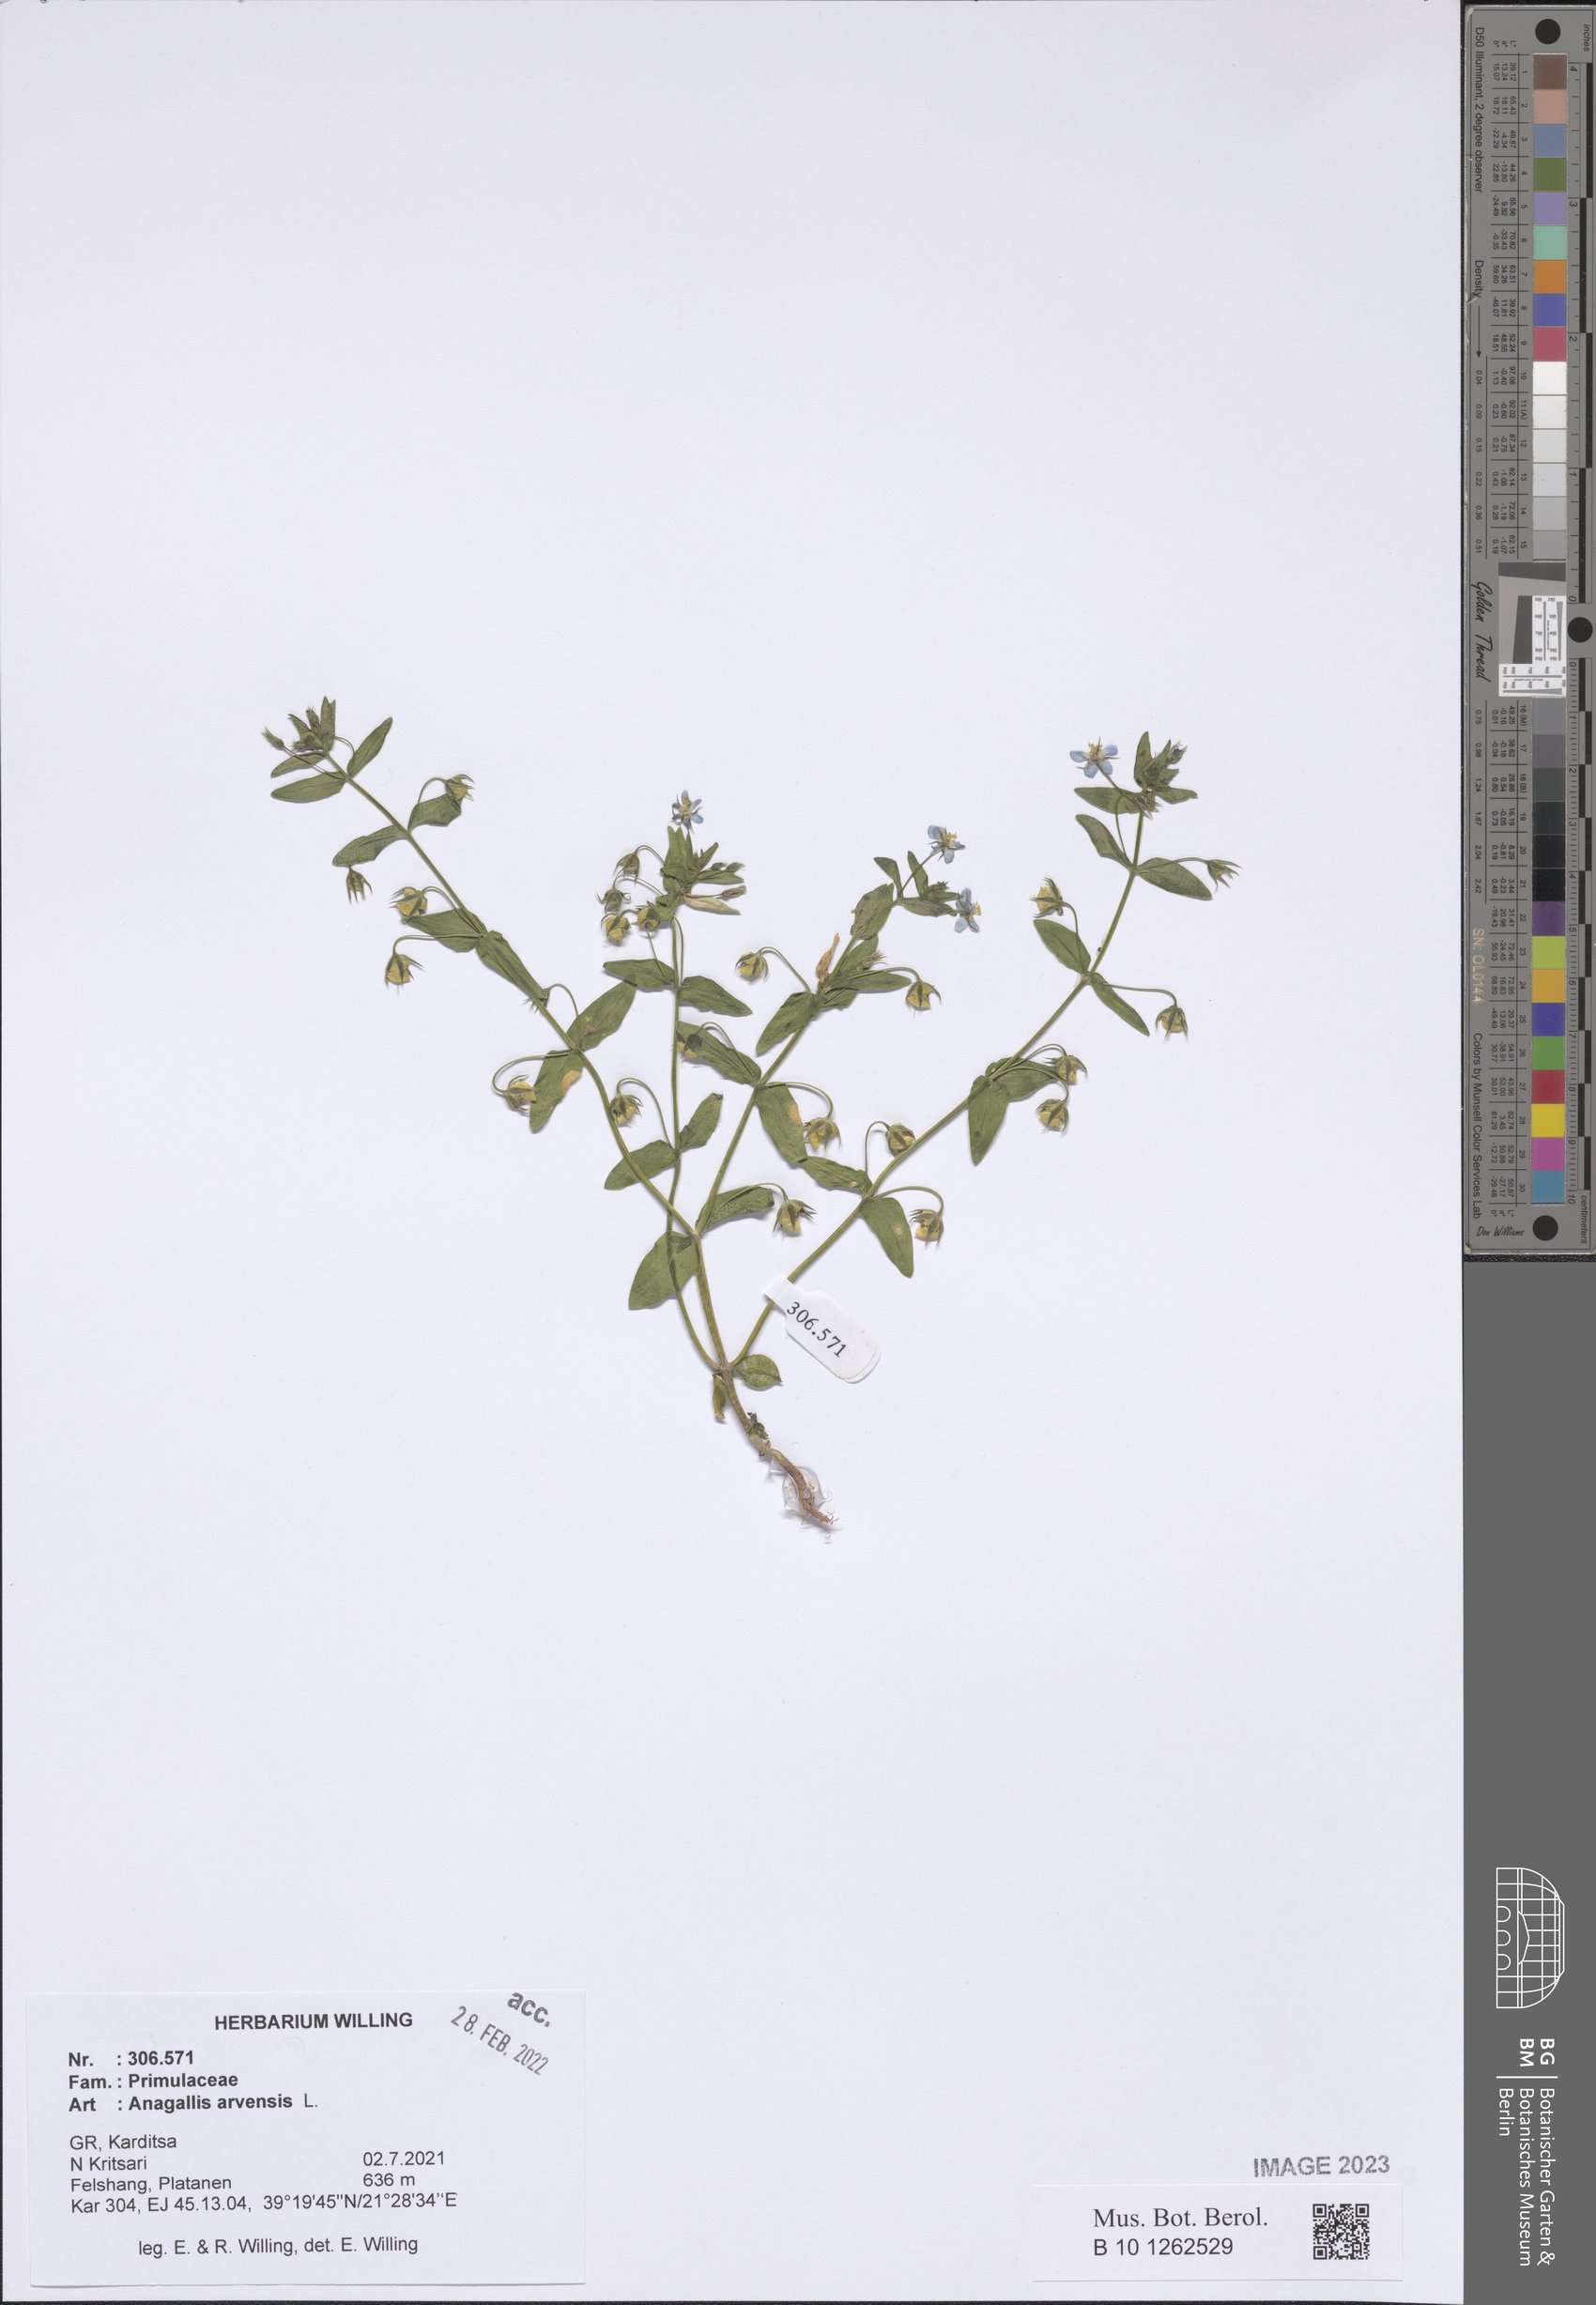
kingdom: Plantae
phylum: Tracheophyta
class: Magnoliopsida
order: Ericales
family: Primulaceae
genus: Lysimachia
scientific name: Lysimachia arvensis
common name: Scarlet pimpernel
